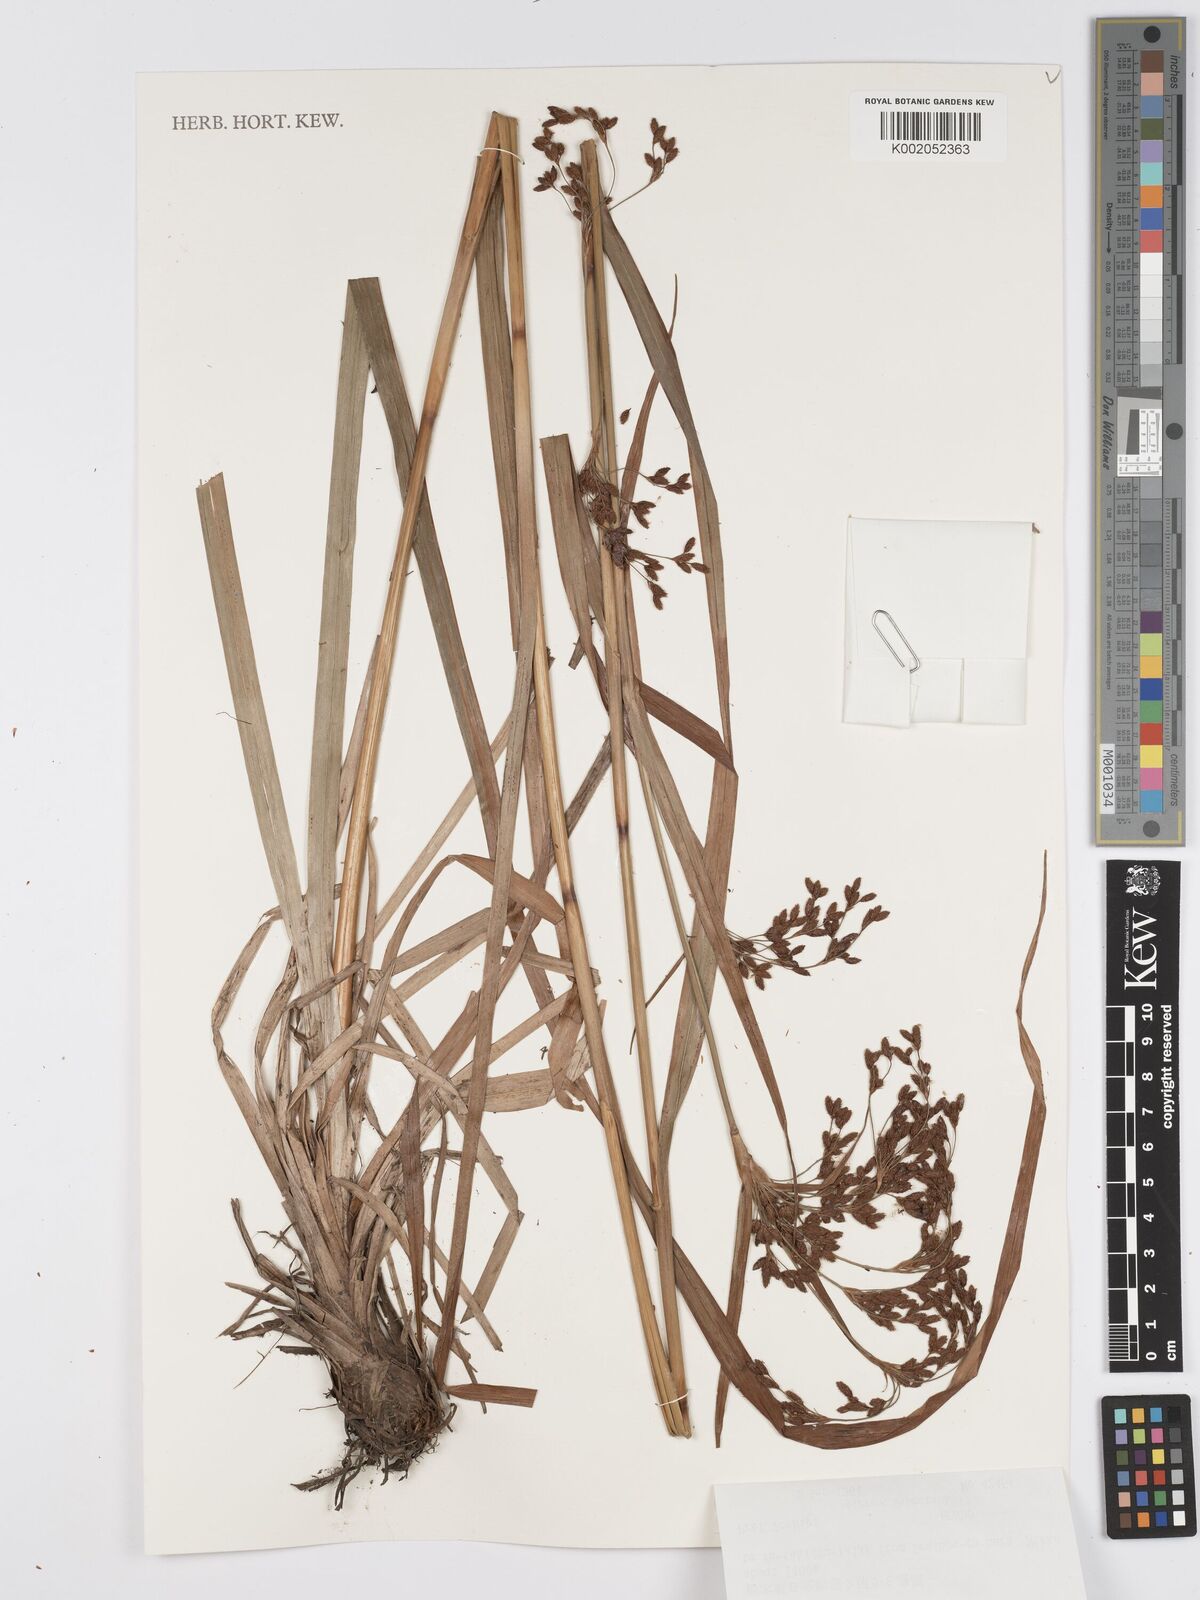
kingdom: Plantae
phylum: Tracheophyta
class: Liliopsida
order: Poales
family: Cyperaceae
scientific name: Cyperaceae
